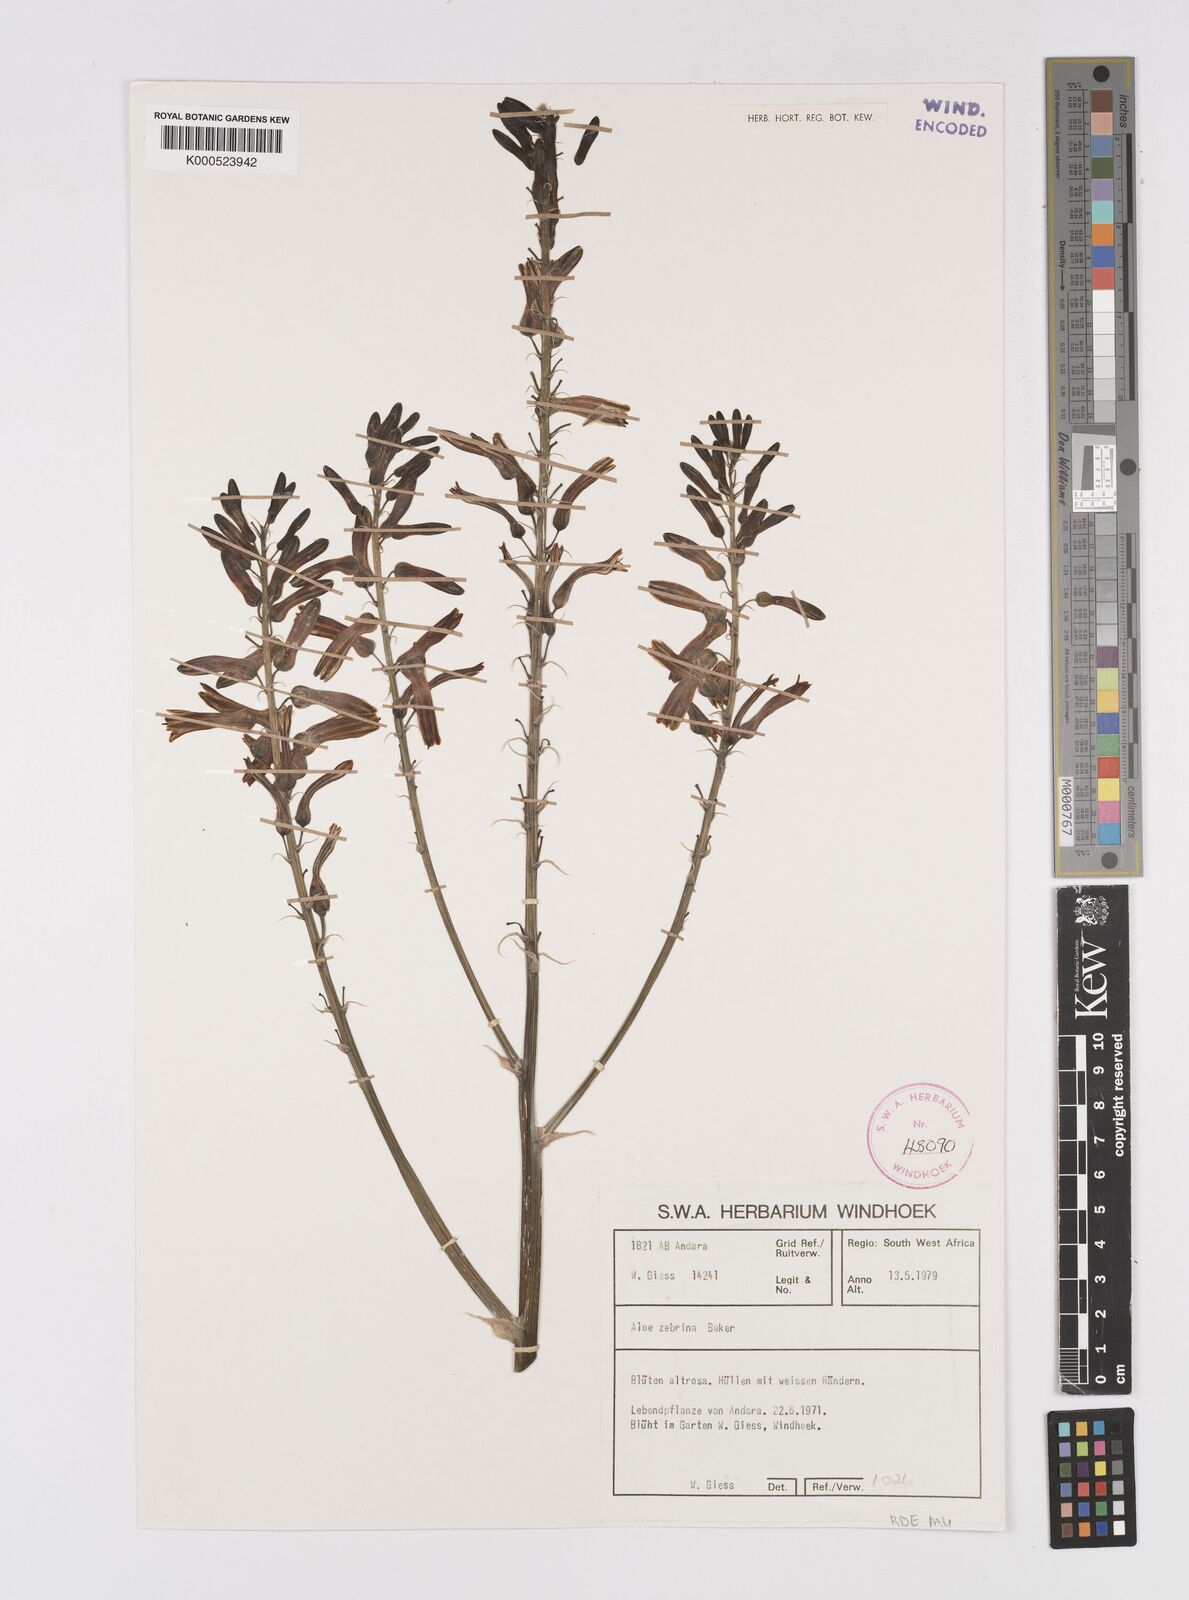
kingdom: Plantae
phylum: Tracheophyta
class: Liliopsida
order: Asparagales
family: Asphodelaceae
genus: Aloe
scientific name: Aloe zebrina
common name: Zebra-leaf aloe
